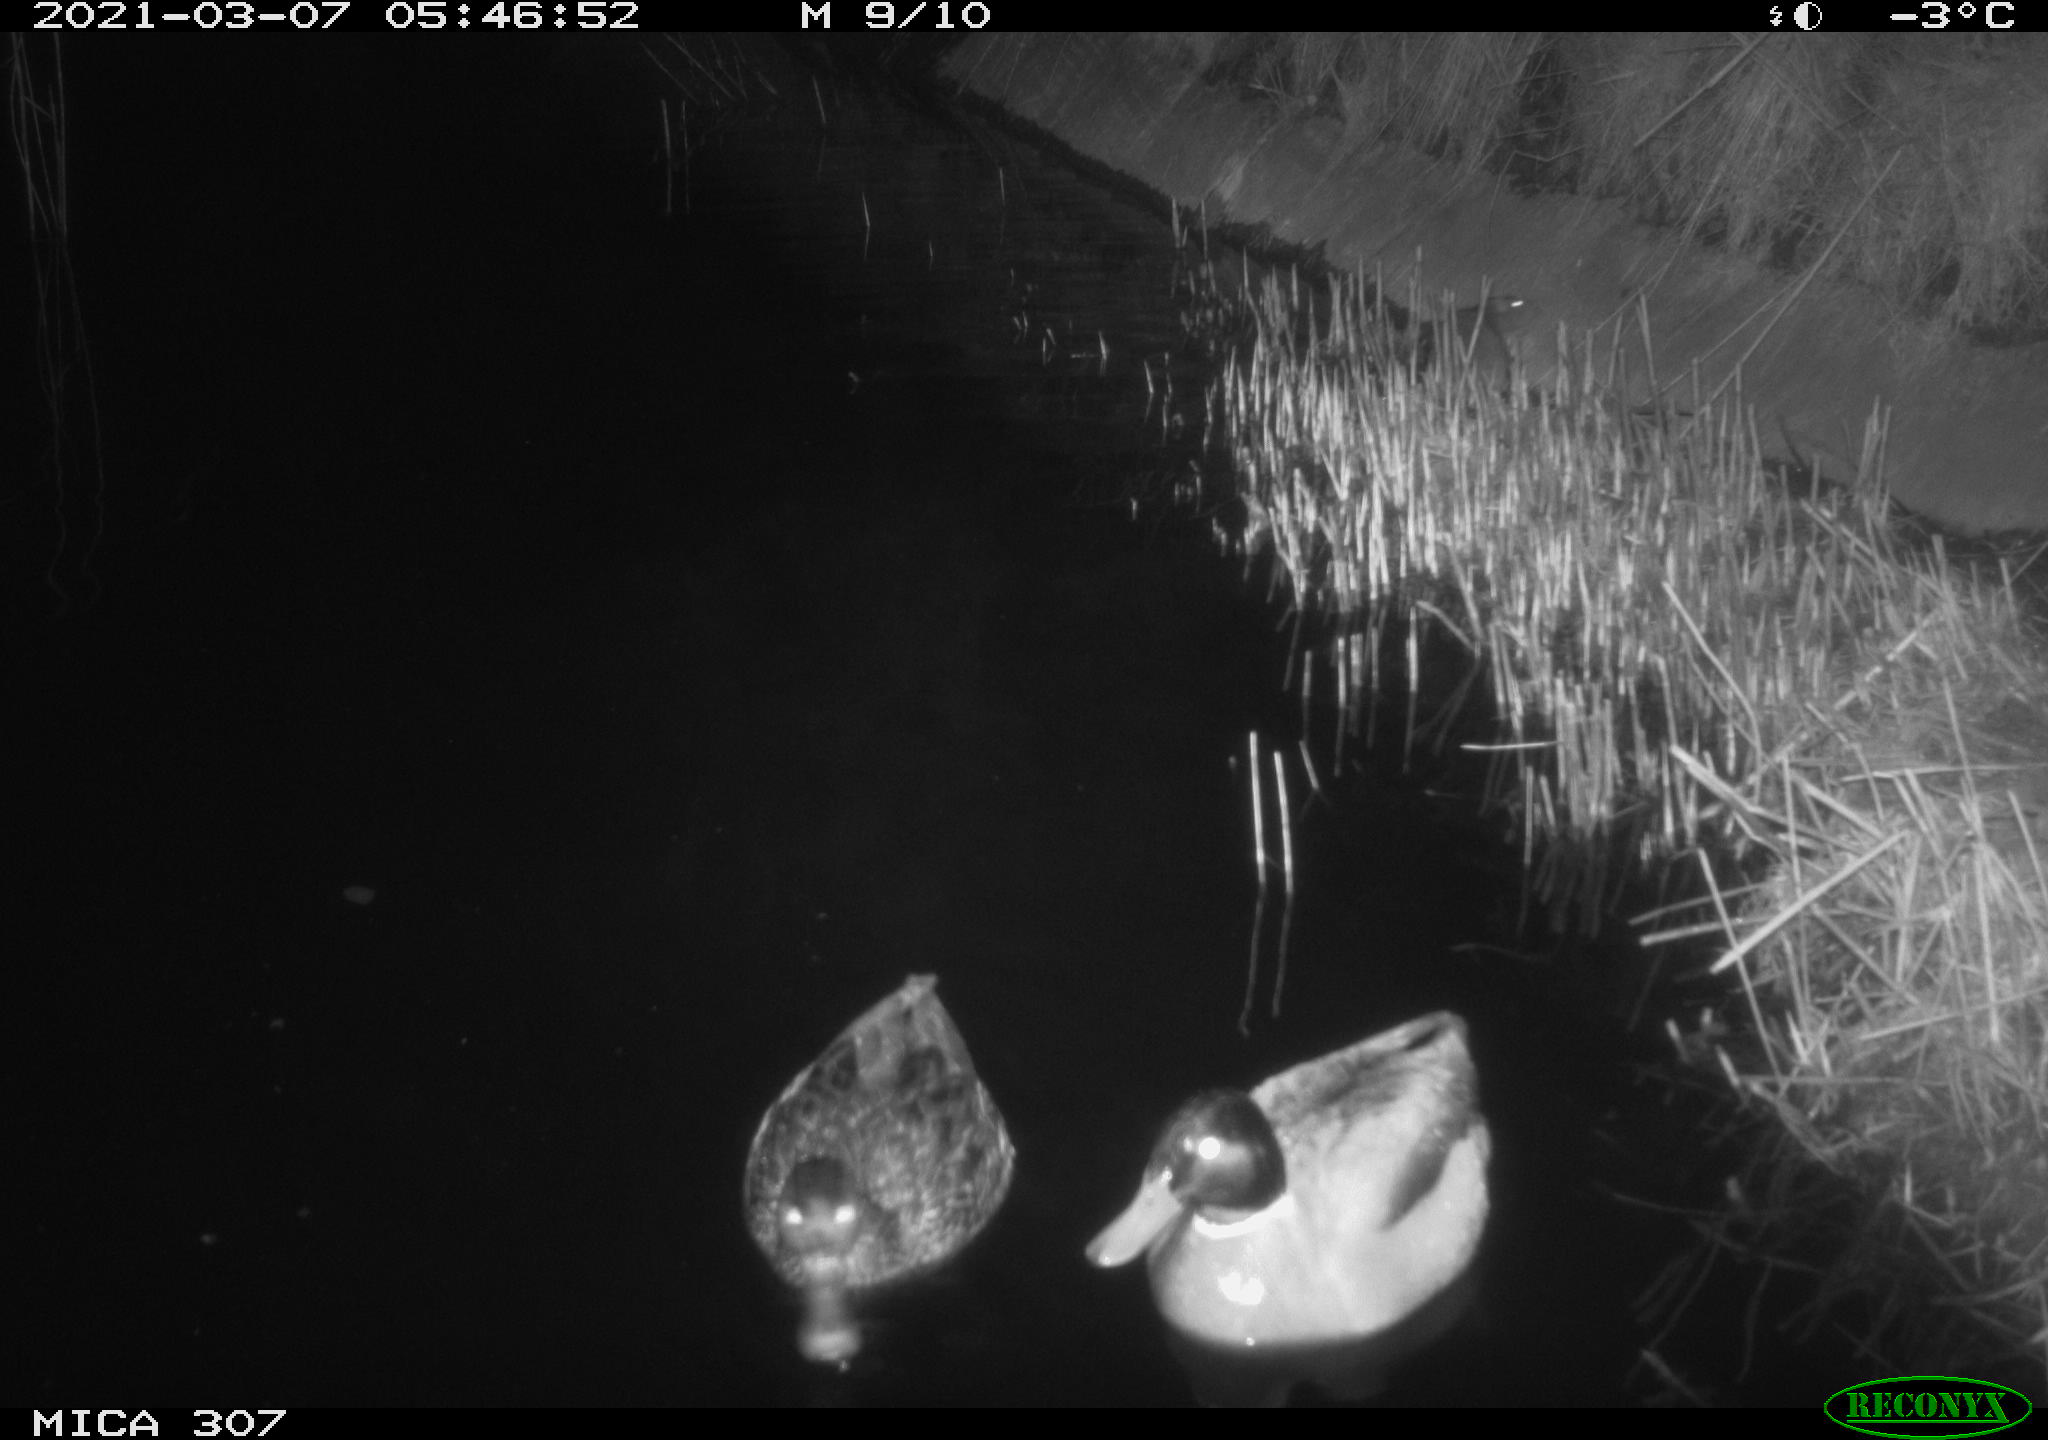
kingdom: Animalia
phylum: Chordata
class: Aves
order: Anseriformes
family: Anatidae
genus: Anas
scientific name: Anas platyrhynchos
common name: Mallard
